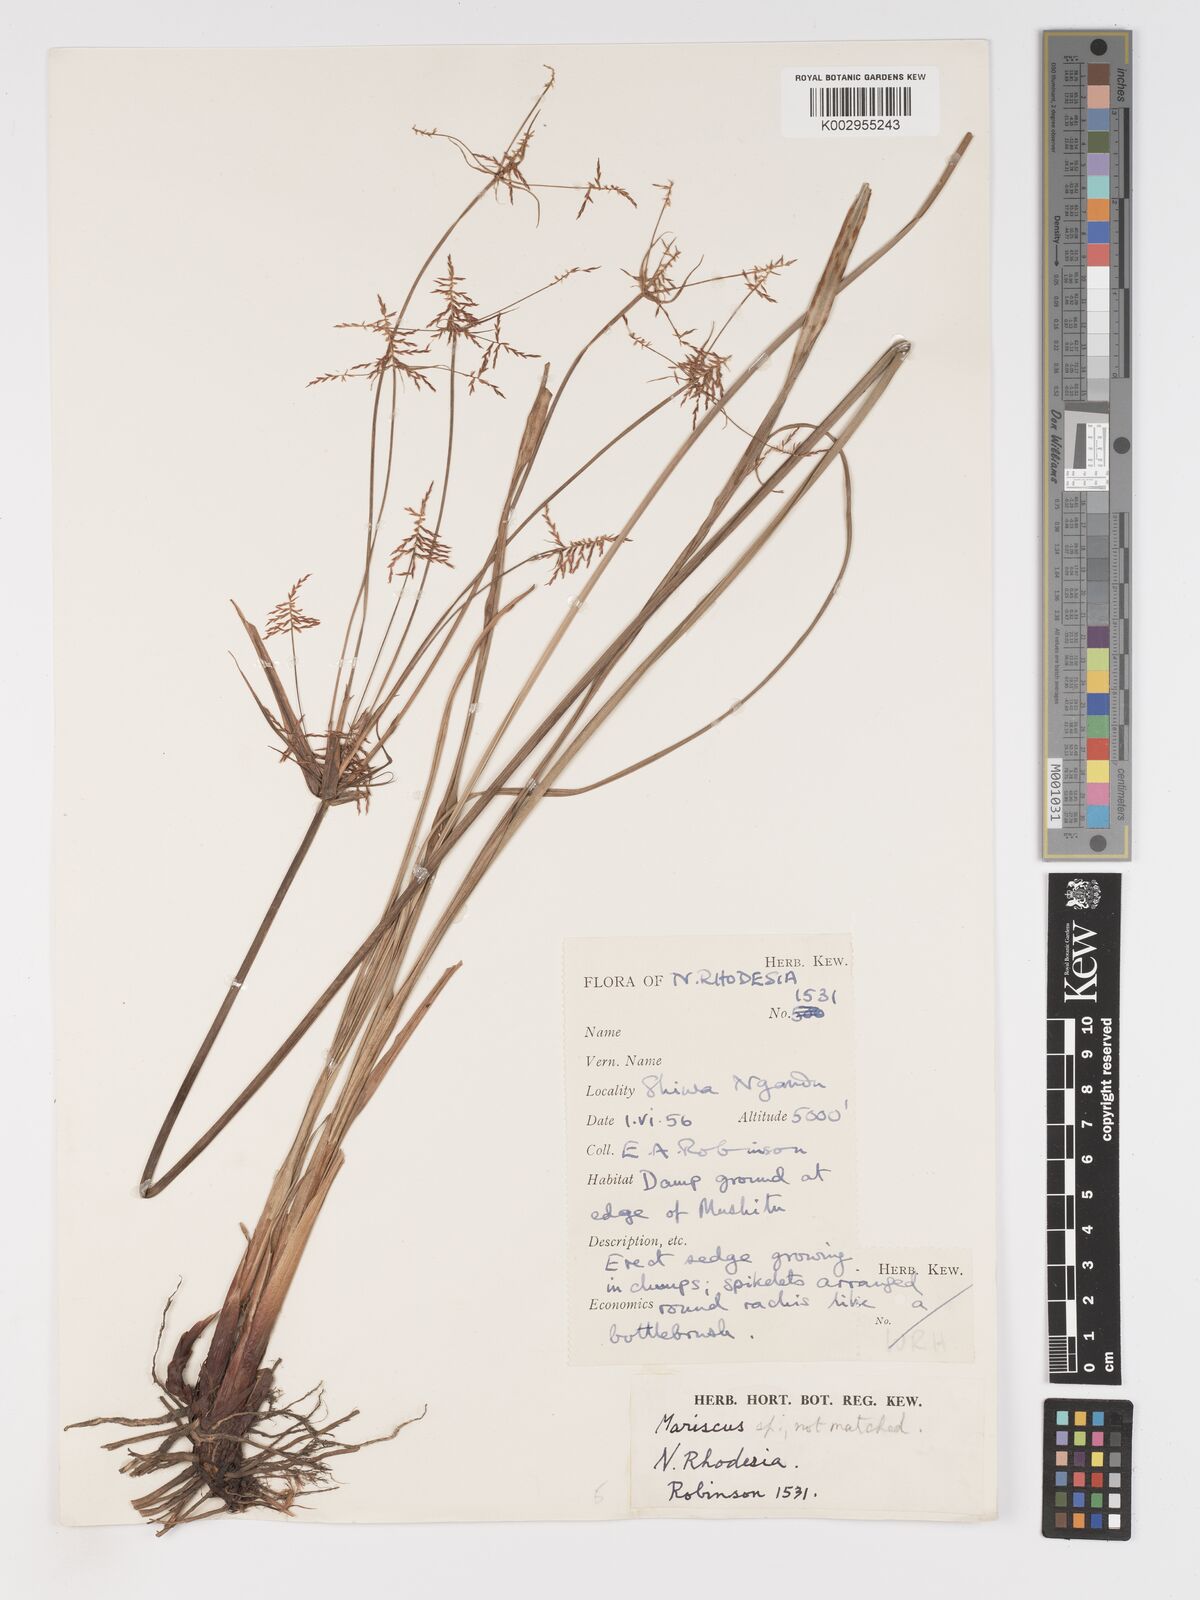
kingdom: Plantae
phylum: Tracheophyta
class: Liliopsida
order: Poales
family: Cyperaceae
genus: Cyperus
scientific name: Cyperus
